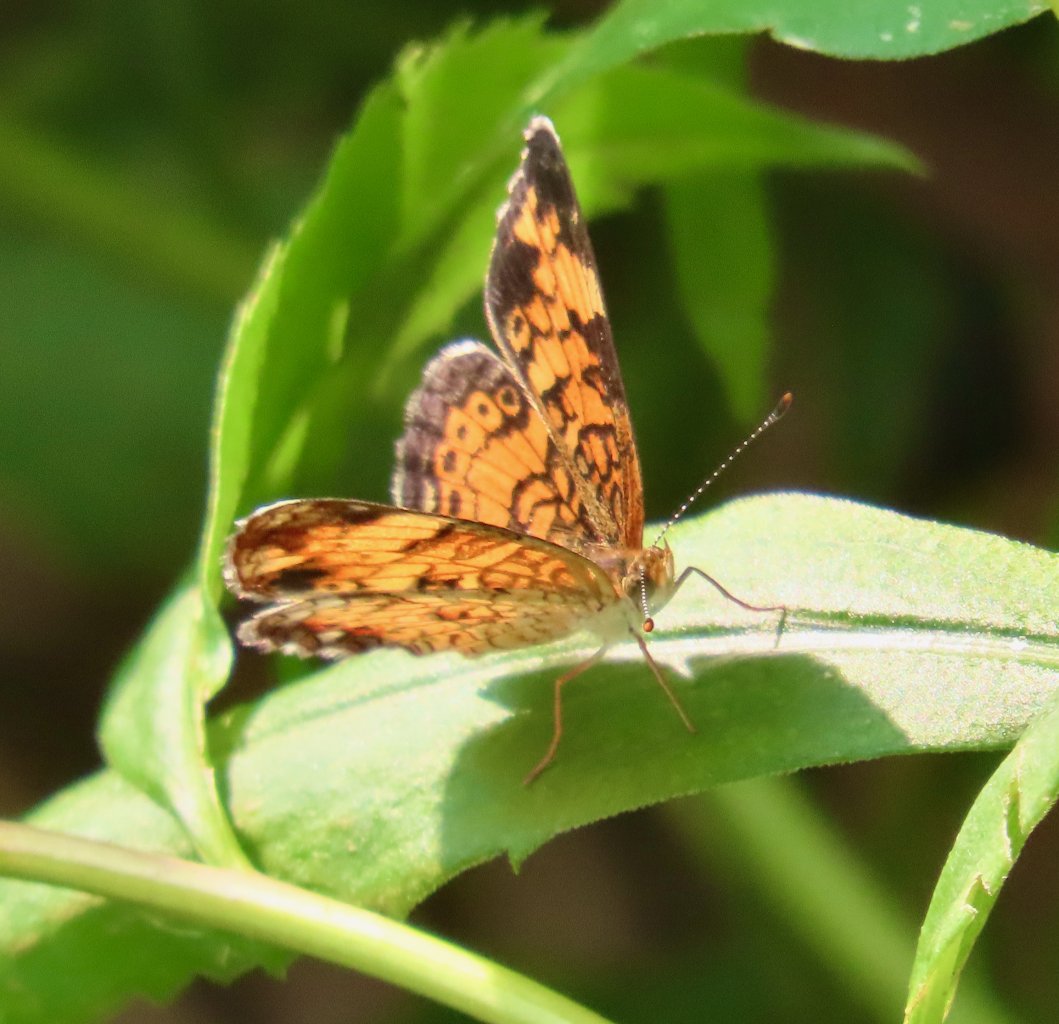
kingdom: Animalia
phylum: Arthropoda
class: Insecta
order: Lepidoptera
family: Nymphalidae
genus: Phyciodes
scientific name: Phyciodes tharos
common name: Pearl Crescent
